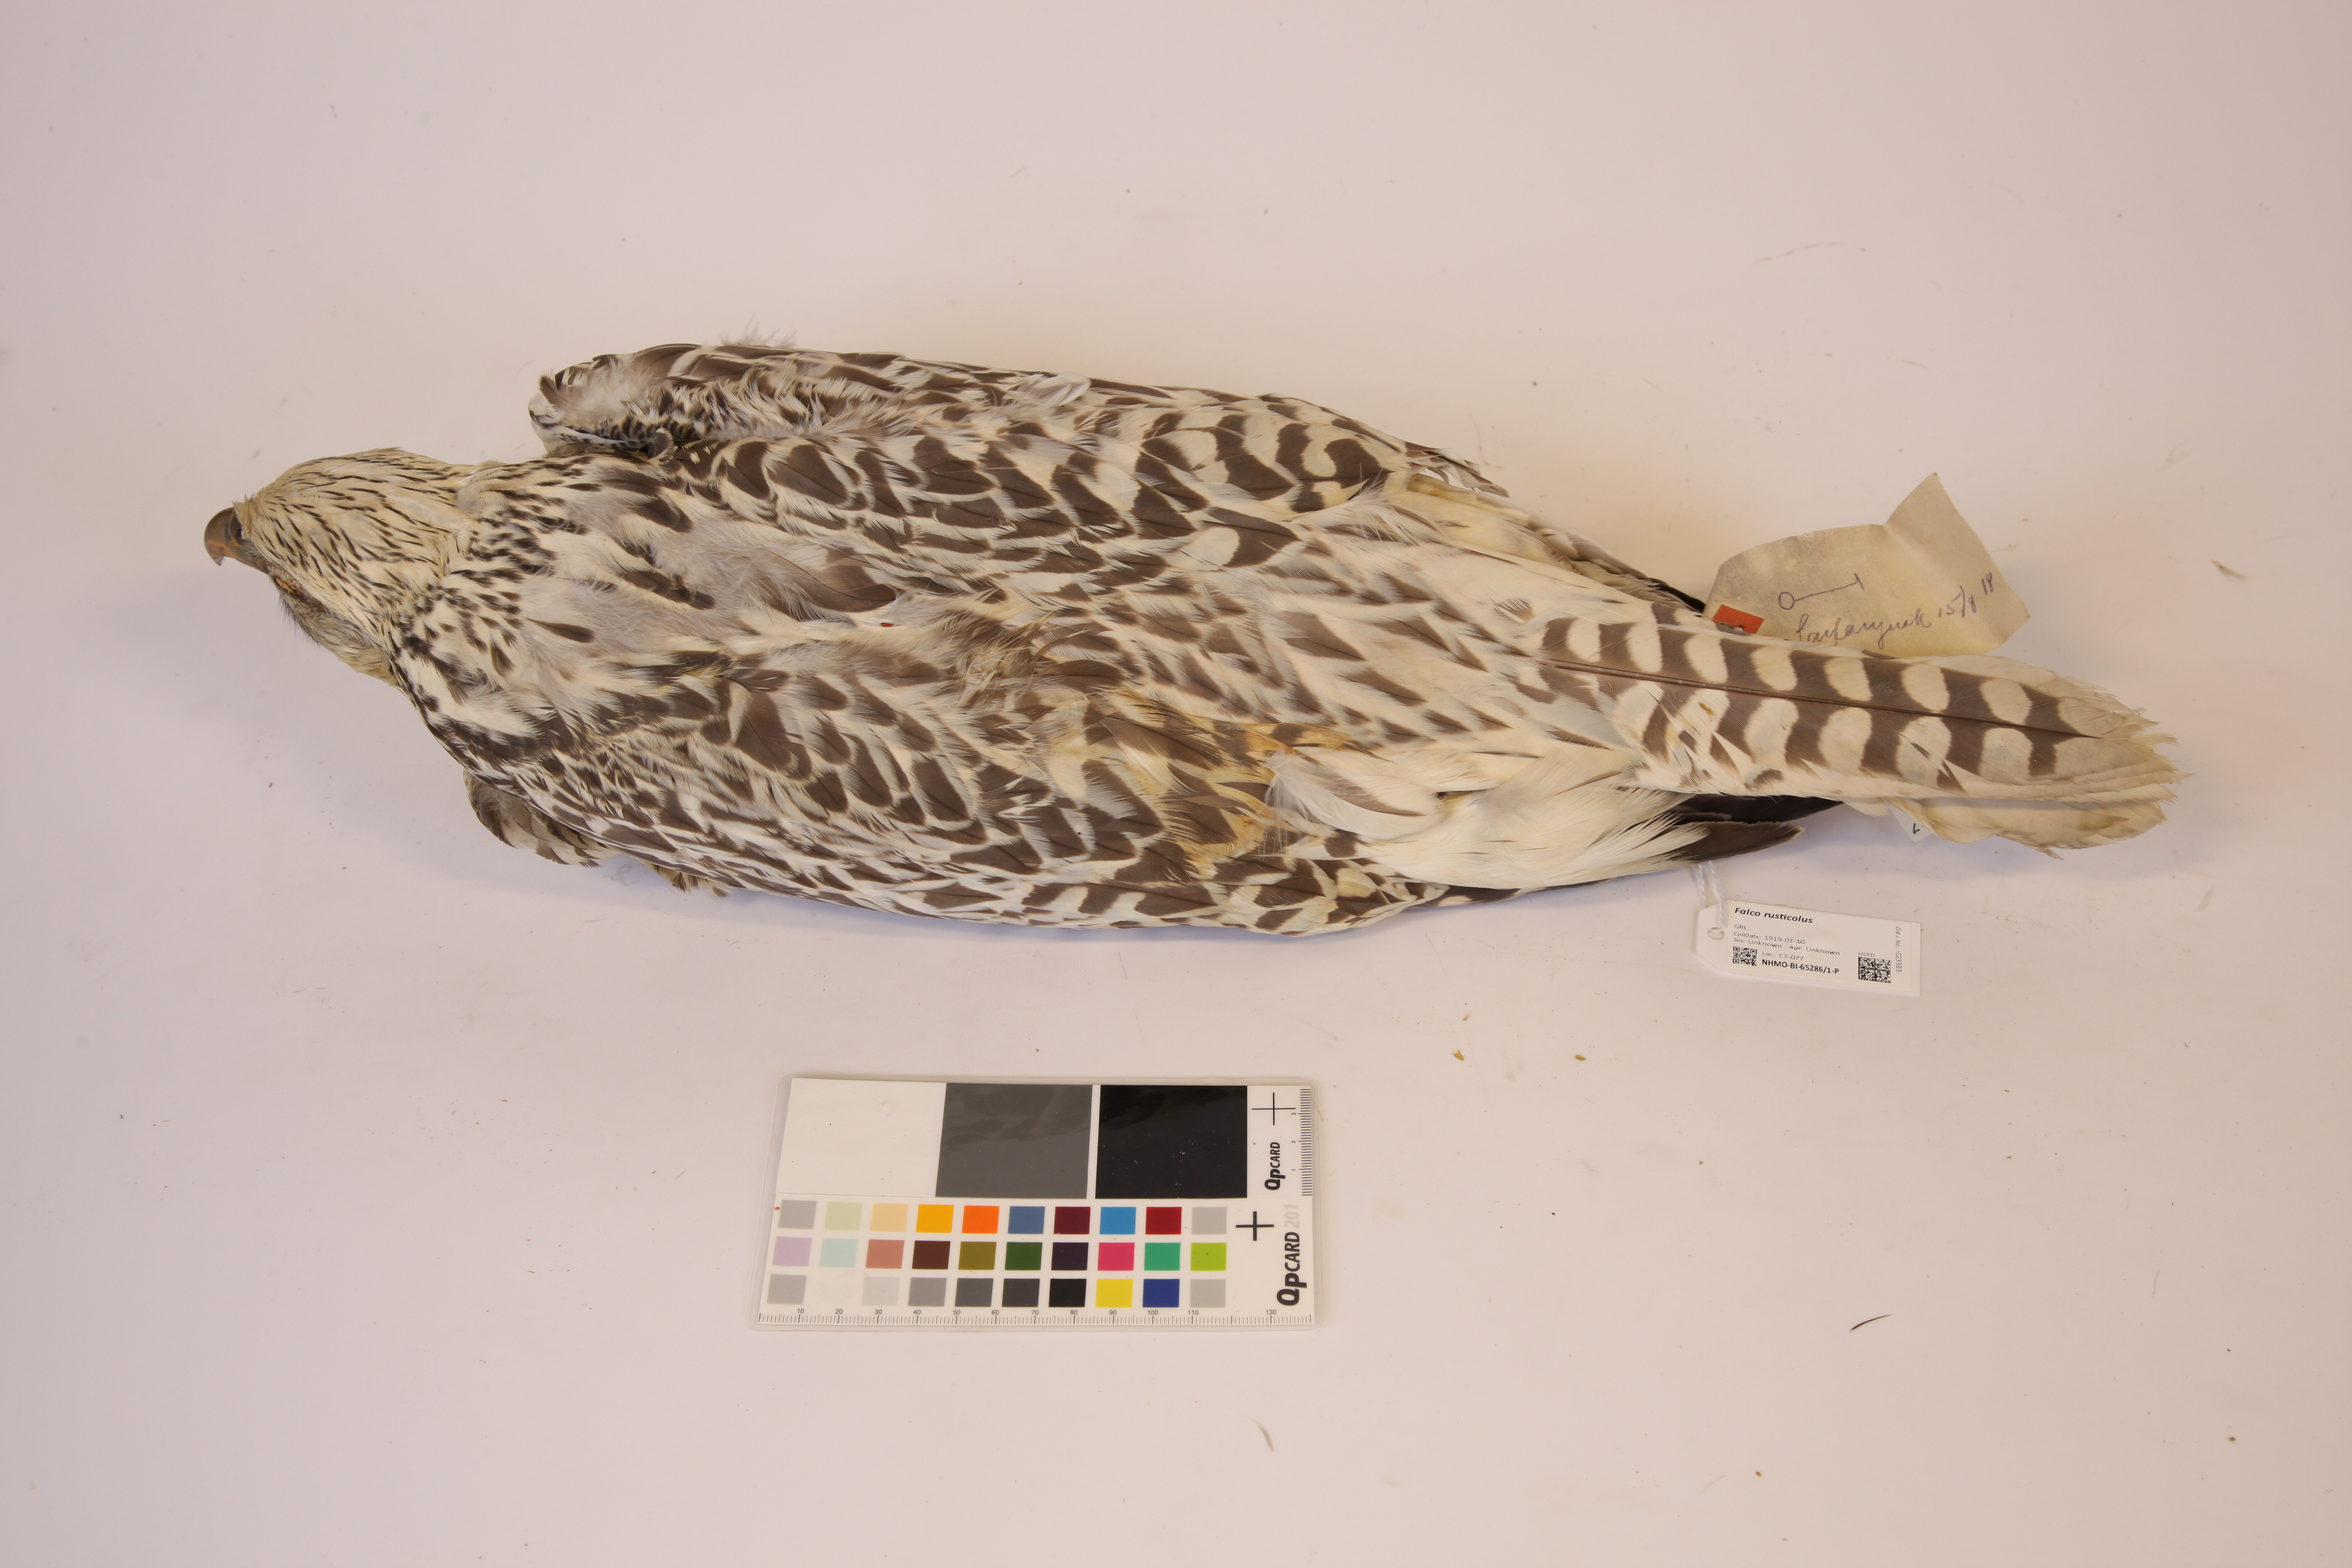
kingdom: Animalia
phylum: Chordata
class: Aves
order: Falconiformes
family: Falconidae
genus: Falco
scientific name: Falco rusticolus
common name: Gyrfalcon
